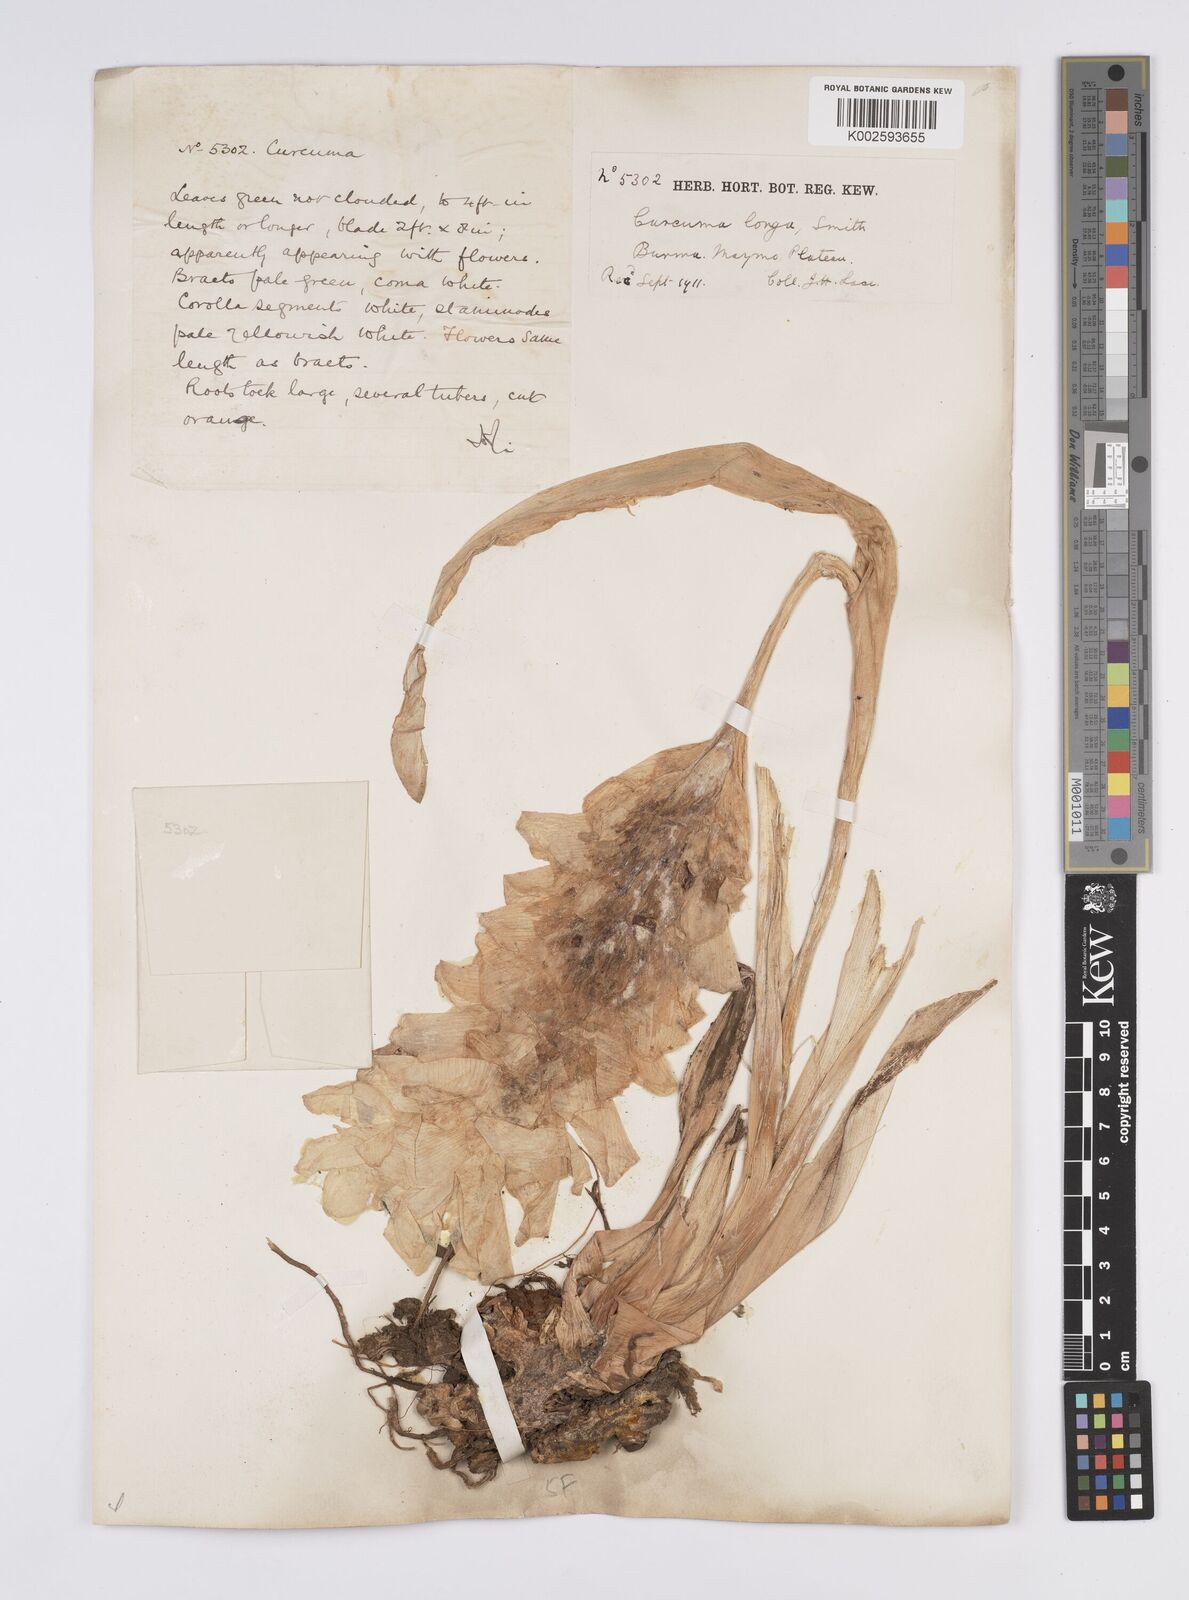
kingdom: Plantae
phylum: Tracheophyta
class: Liliopsida
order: Zingiberales
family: Zingiberaceae
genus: Curcuma
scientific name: Curcuma longa
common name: Turmeric
